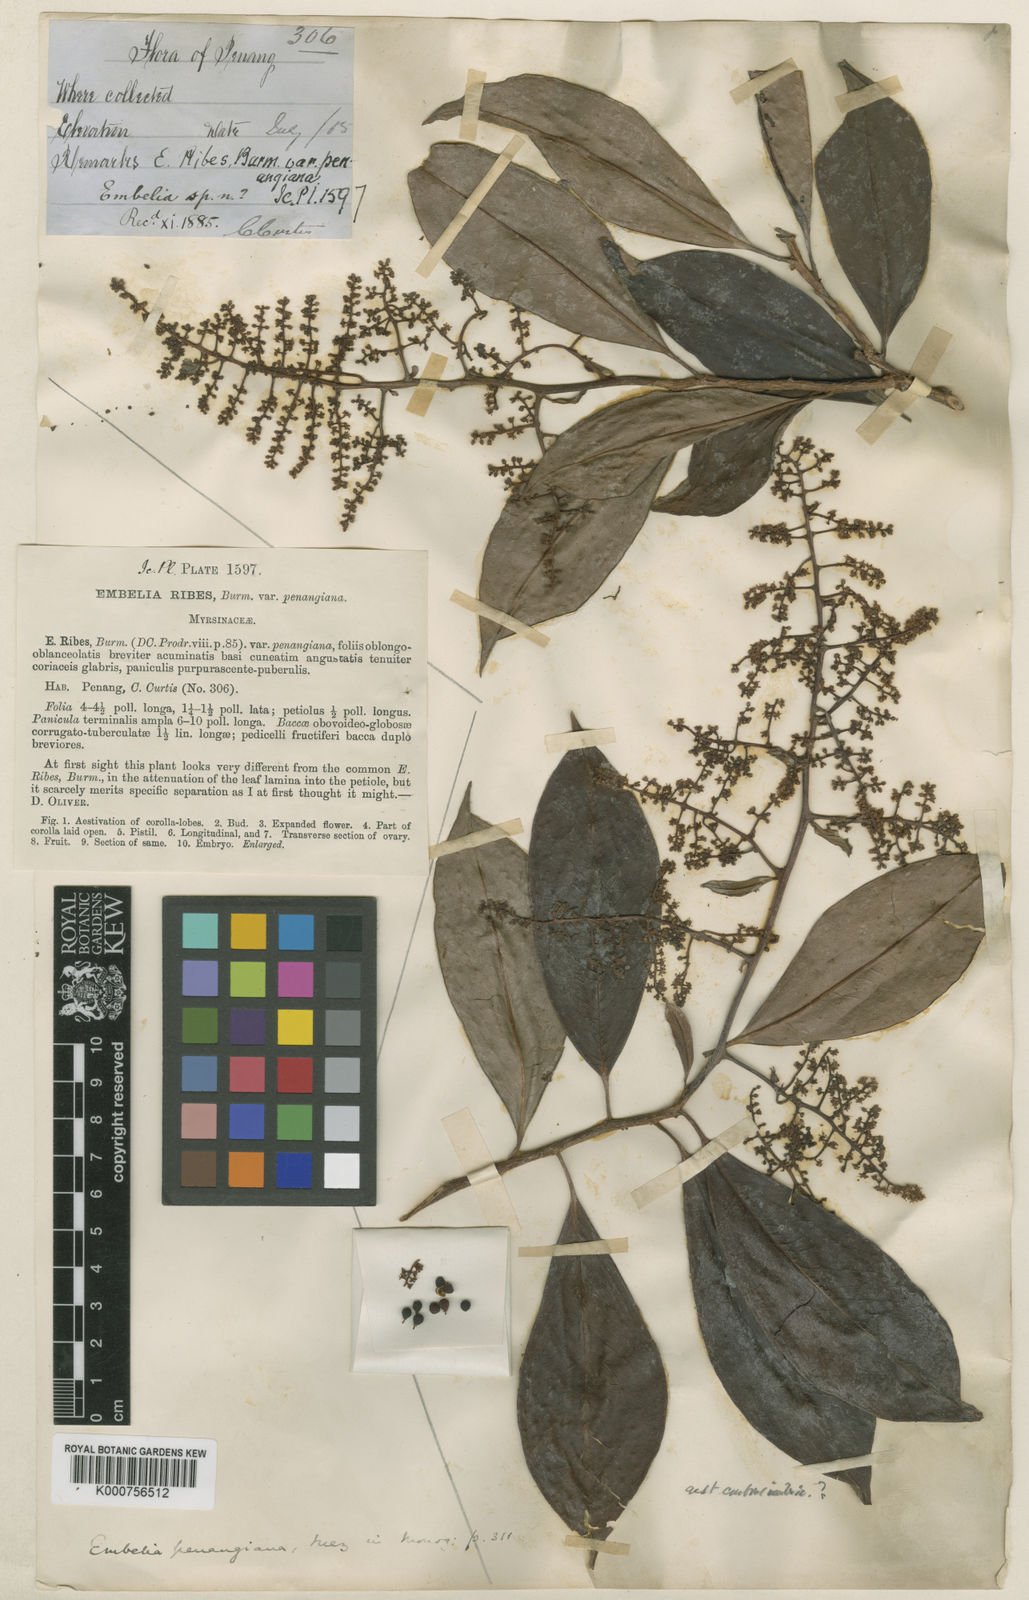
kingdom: Plantae
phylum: Tracheophyta
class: Magnoliopsida
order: Ericales
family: Primulaceae
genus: Embelia
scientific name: Embelia penangiana
